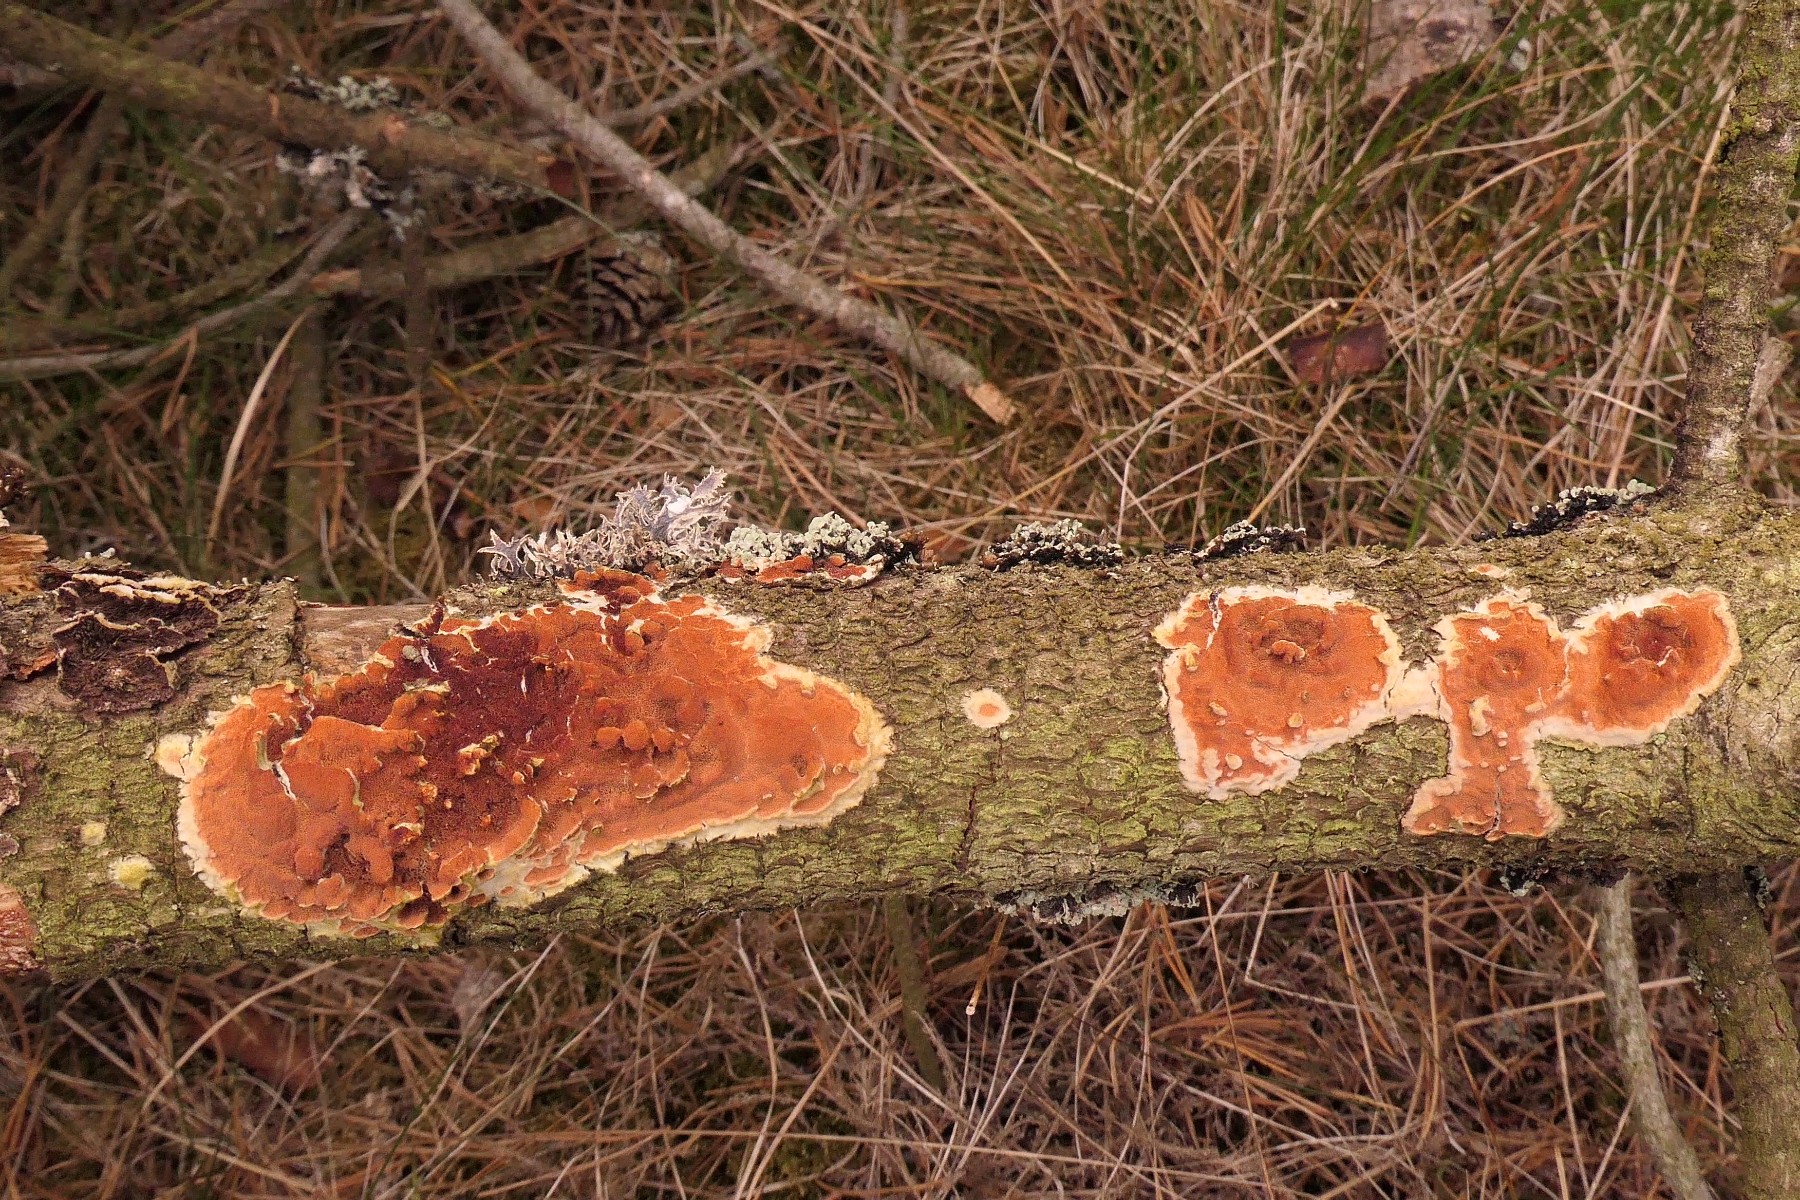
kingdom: Fungi
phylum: Basidiomycota
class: Agaricomycetes
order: Polyporales
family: Irpicaceae
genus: Meruliopsis
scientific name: Meruliopsis taxicola
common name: purpurbrun foldporesvamp
